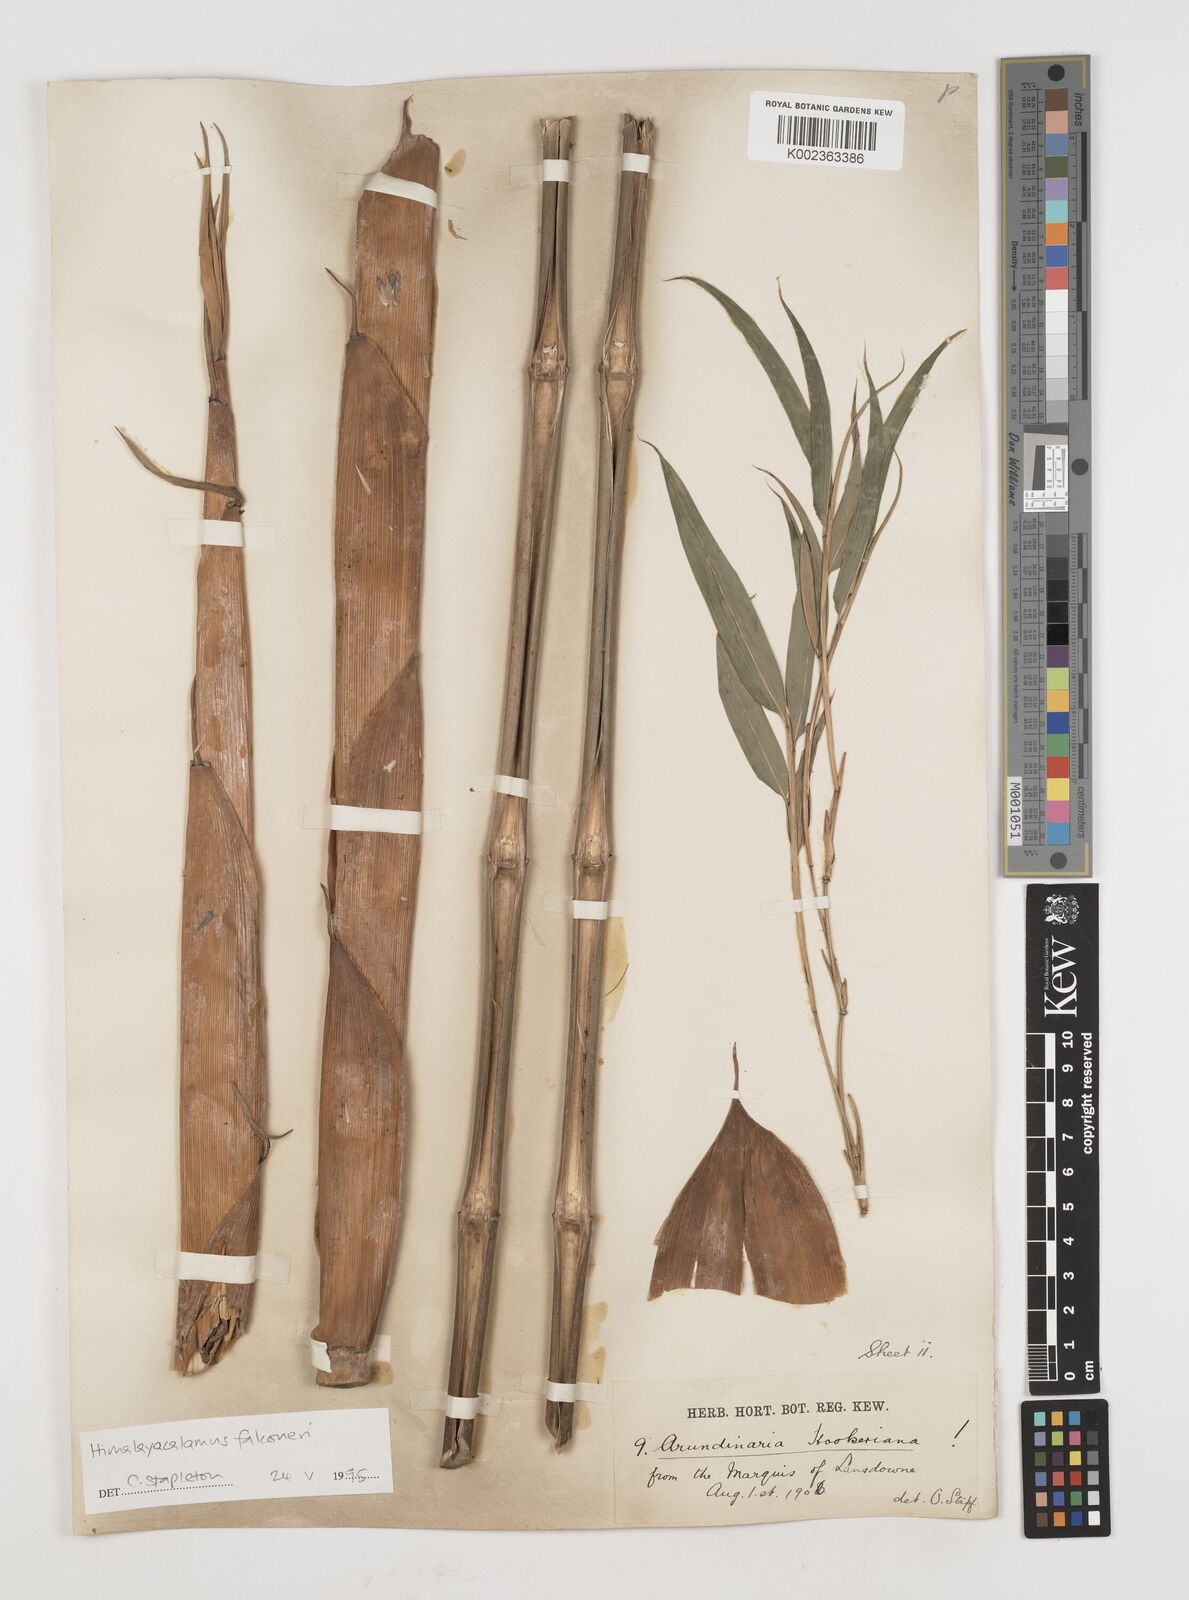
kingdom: Plantae
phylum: Tracheophyta
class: Liliopsida
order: Poales
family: Poaceae
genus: Himalayacalamus
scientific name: Himalayacalamus
